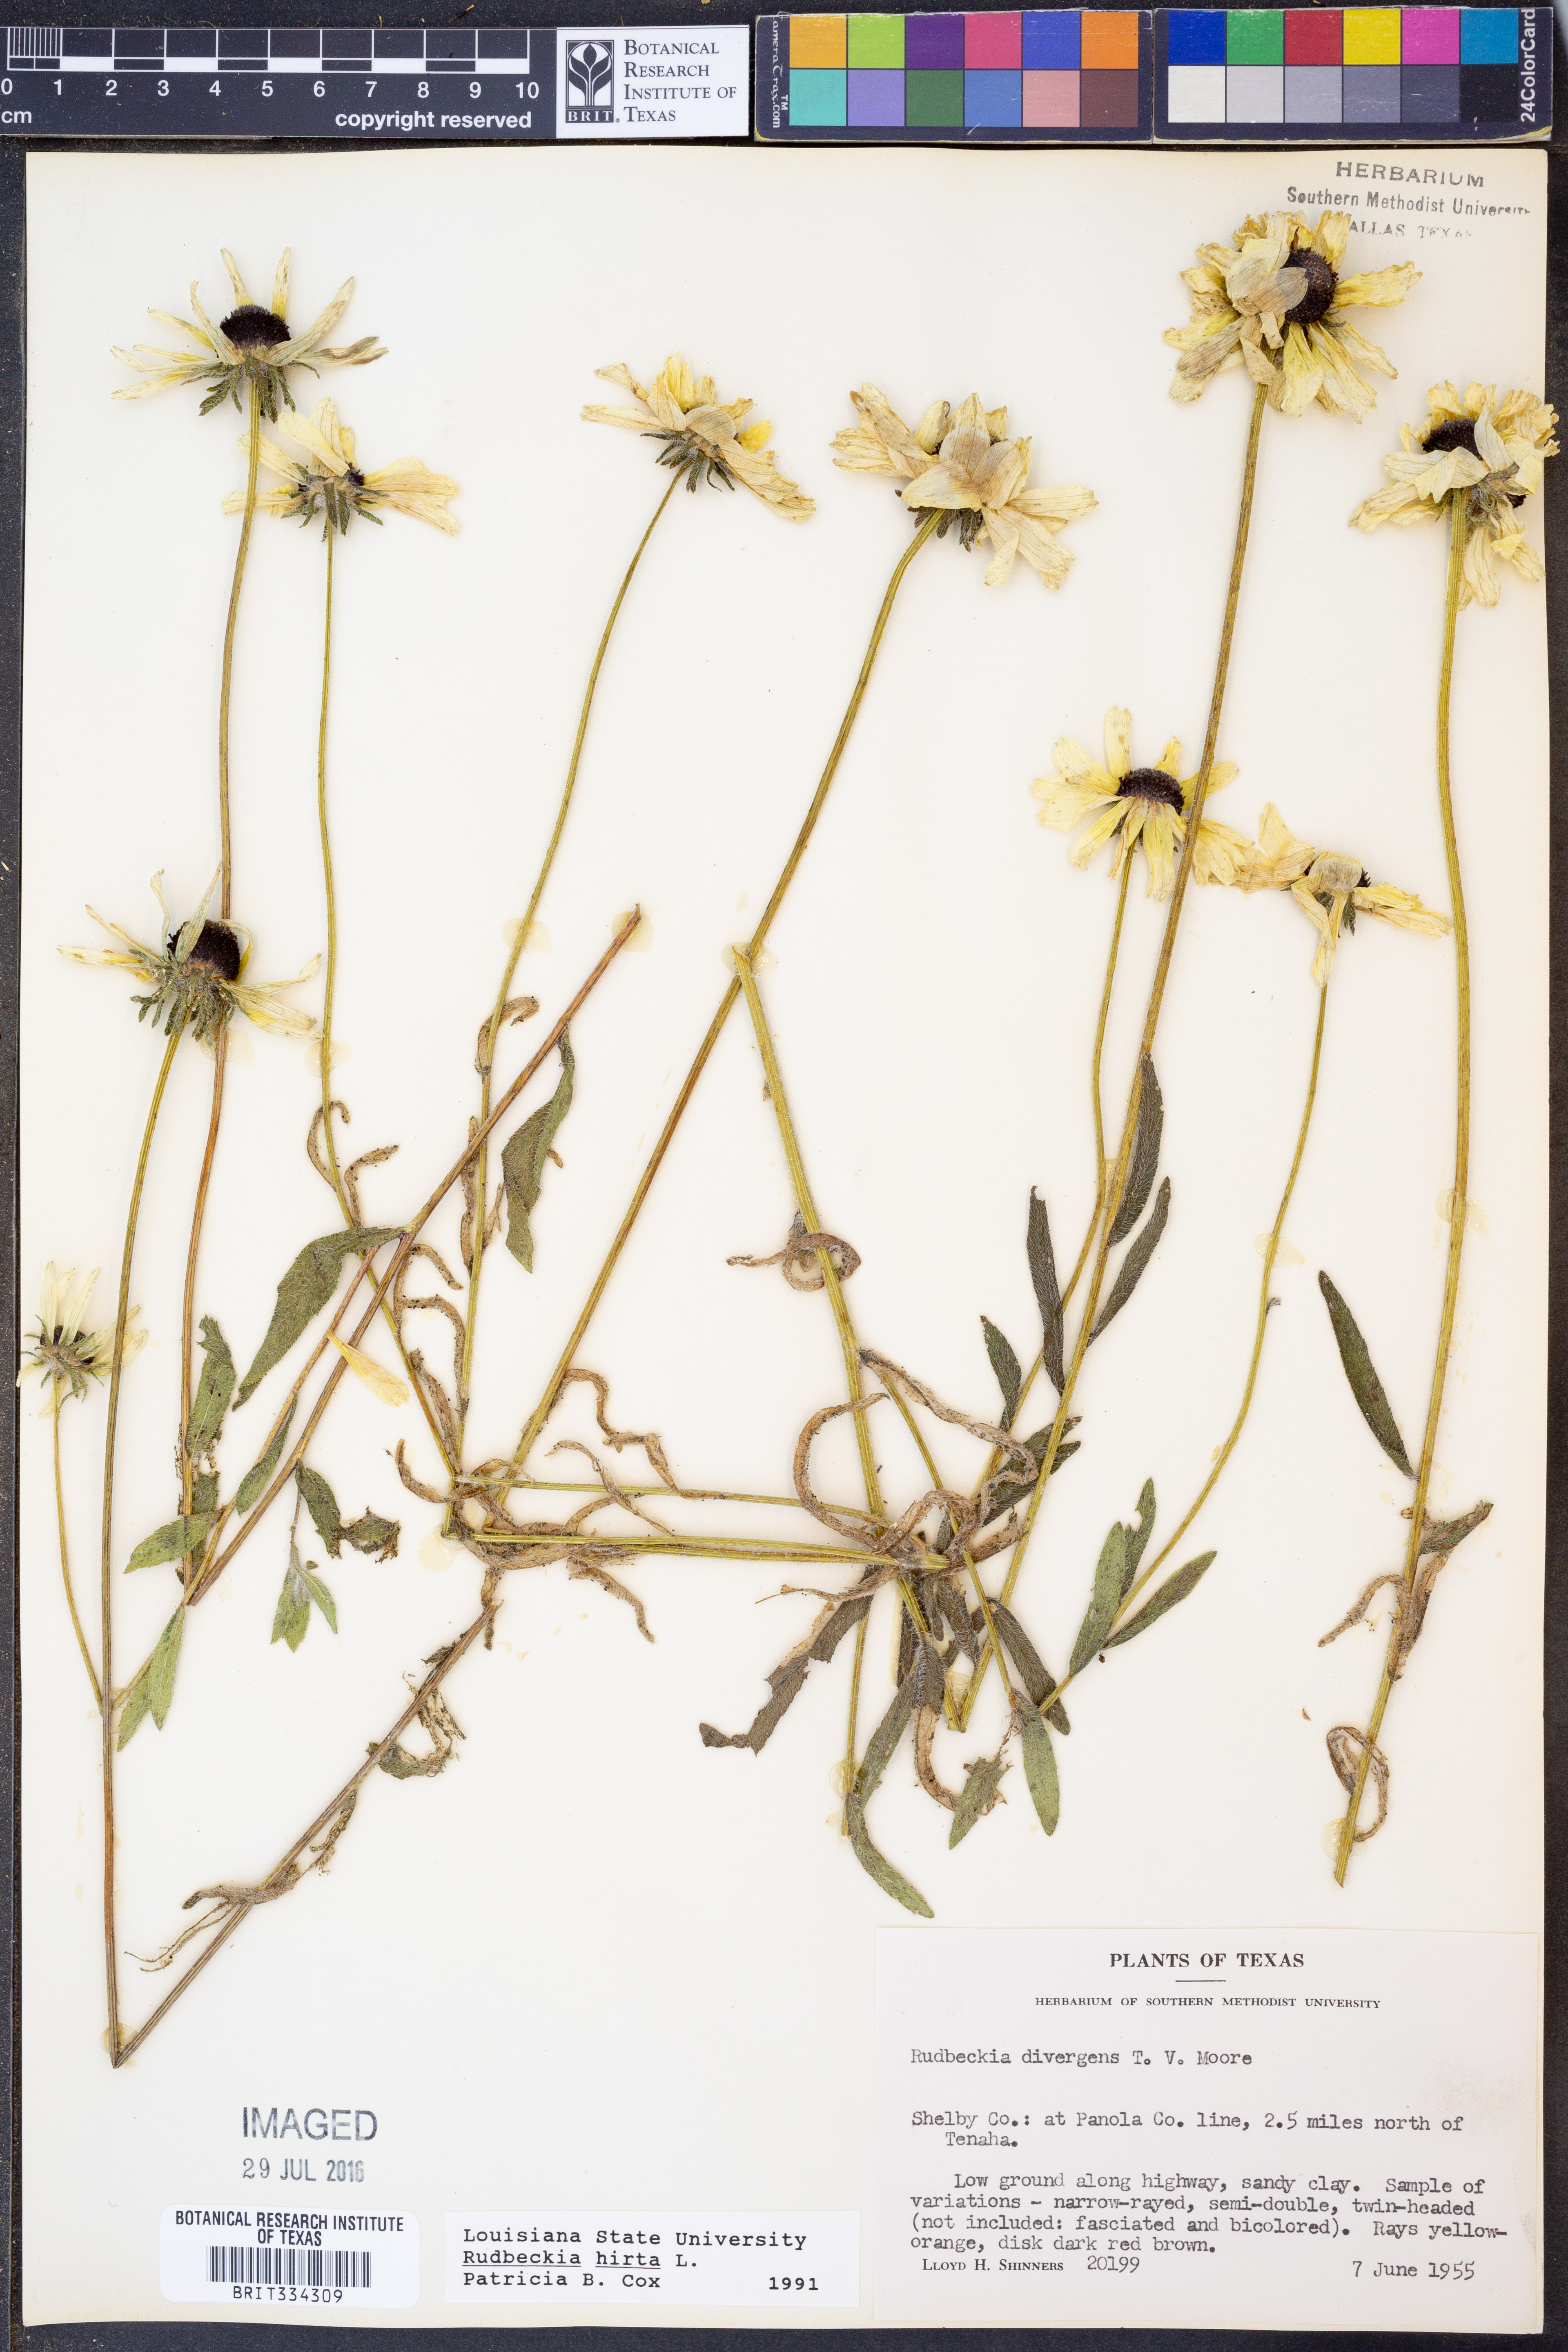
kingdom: Plantae
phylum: Tracheophyta
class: Magnoliopsida
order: Asterales
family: Asteraceae
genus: Rudbeckia
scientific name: Rudbeckia hirta
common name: Black-eyed-susan
